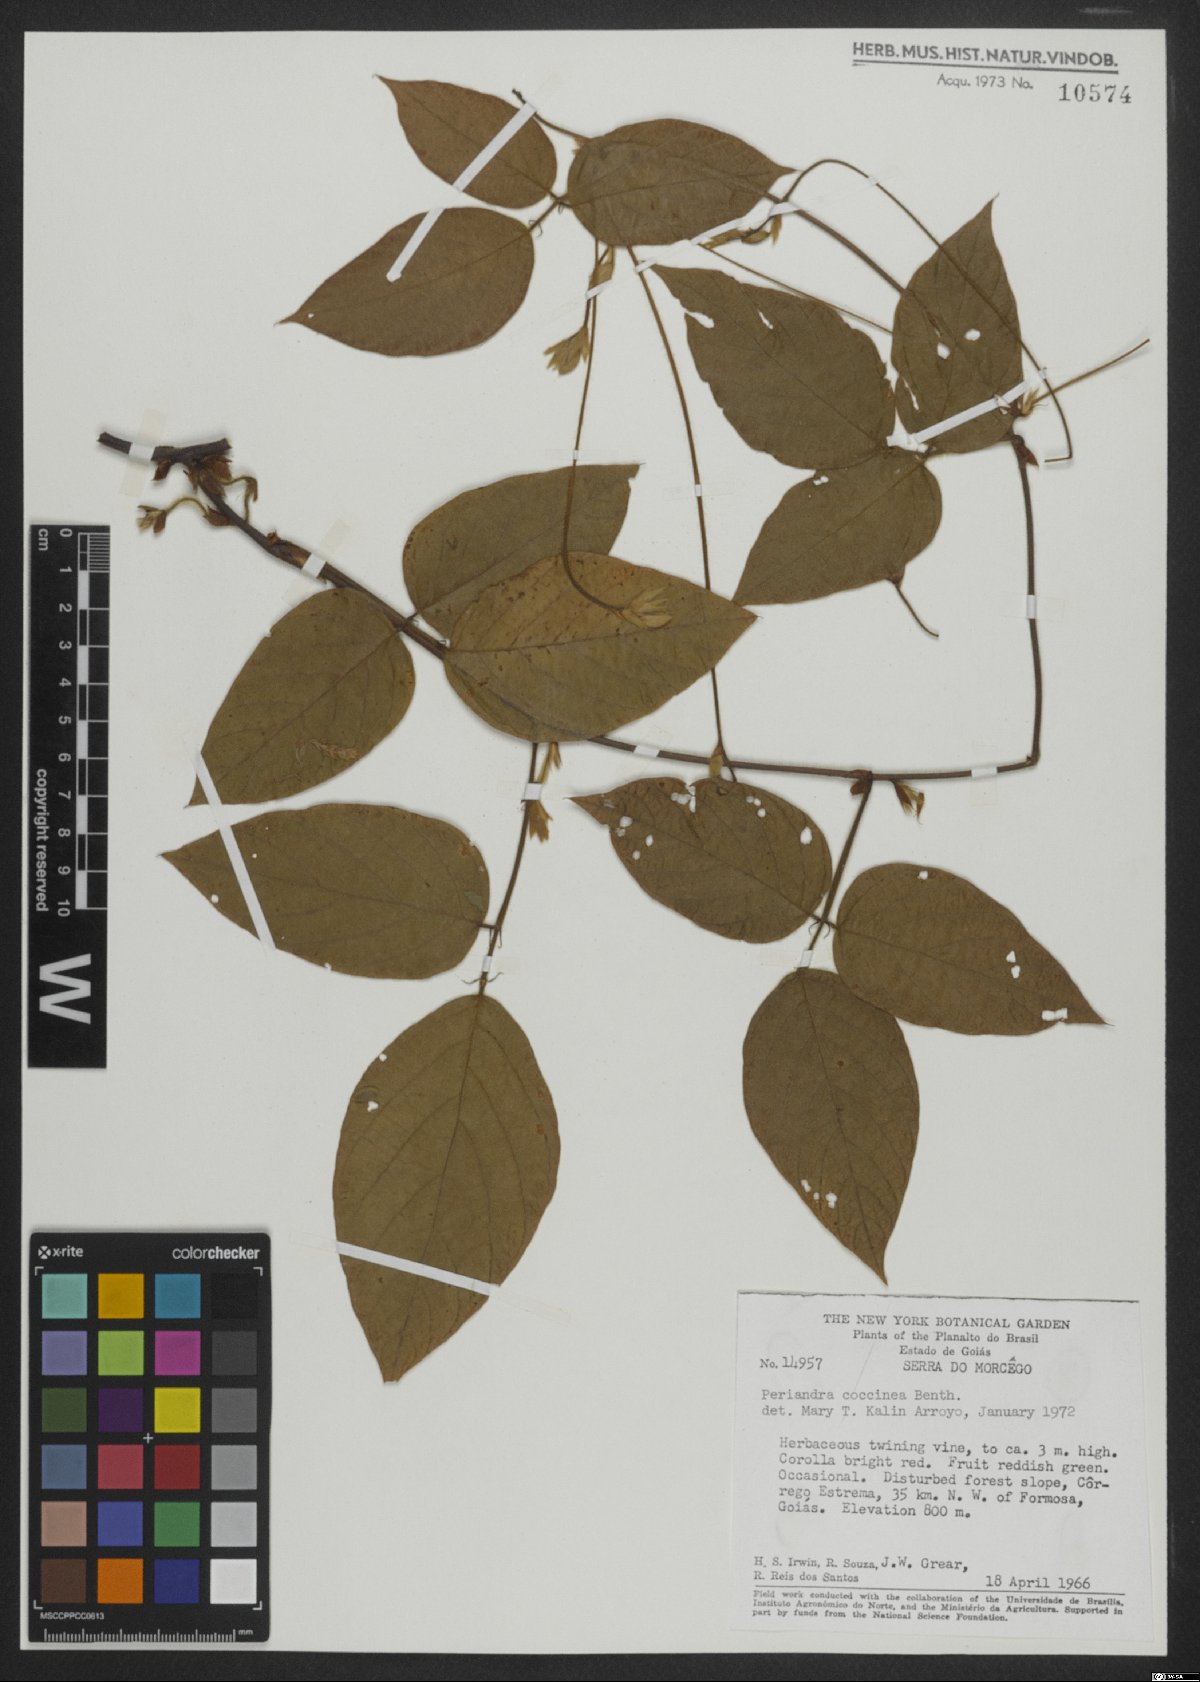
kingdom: Plantae
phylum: Tracheophyta
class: Magnoliopsida
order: Fabales
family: Fabaceae
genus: Periandra
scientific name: Periandra coccinea
